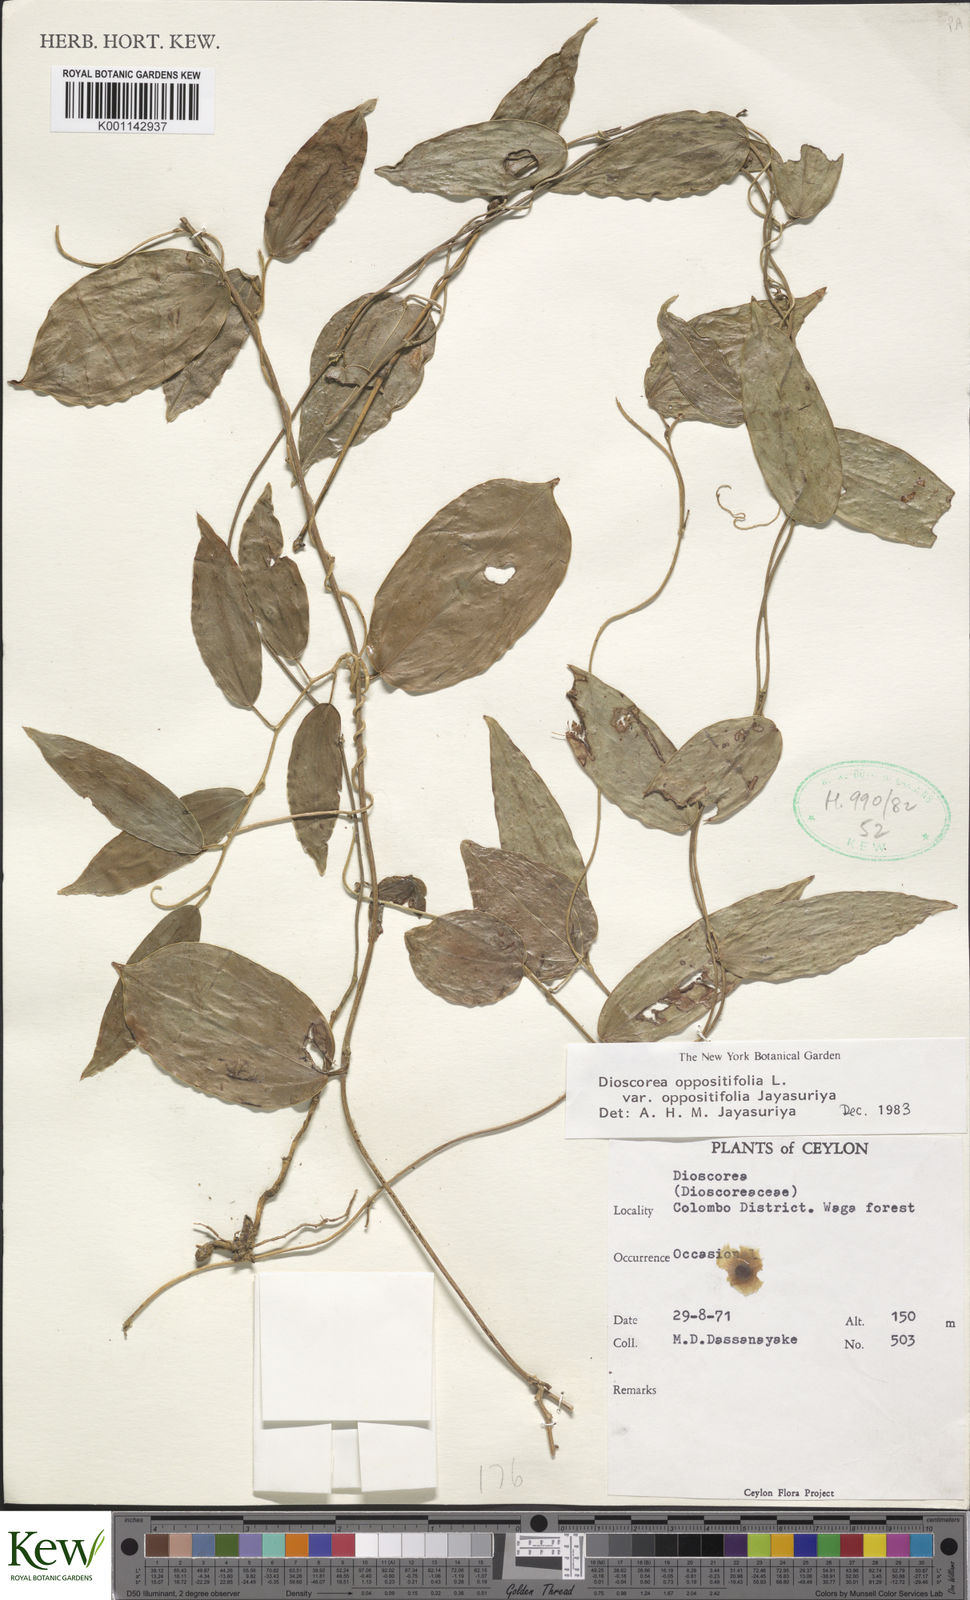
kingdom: Plantae
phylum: Tracheophyta
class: Liliopsida
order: Dioscoreales
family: Dioscoreaceae
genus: Dioscorea
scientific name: Dioscorea oppositifolia
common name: Chinese yam
